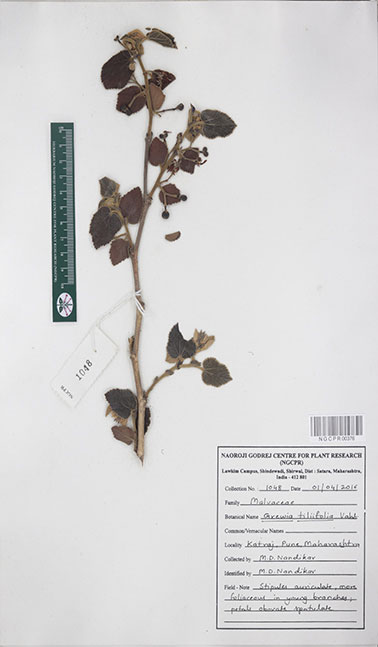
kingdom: Plantae
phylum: Tracheophyta
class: Magnoliopsida
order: Malvales
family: Malvaceae
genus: Grewia
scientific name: Grewia tiliifolia
